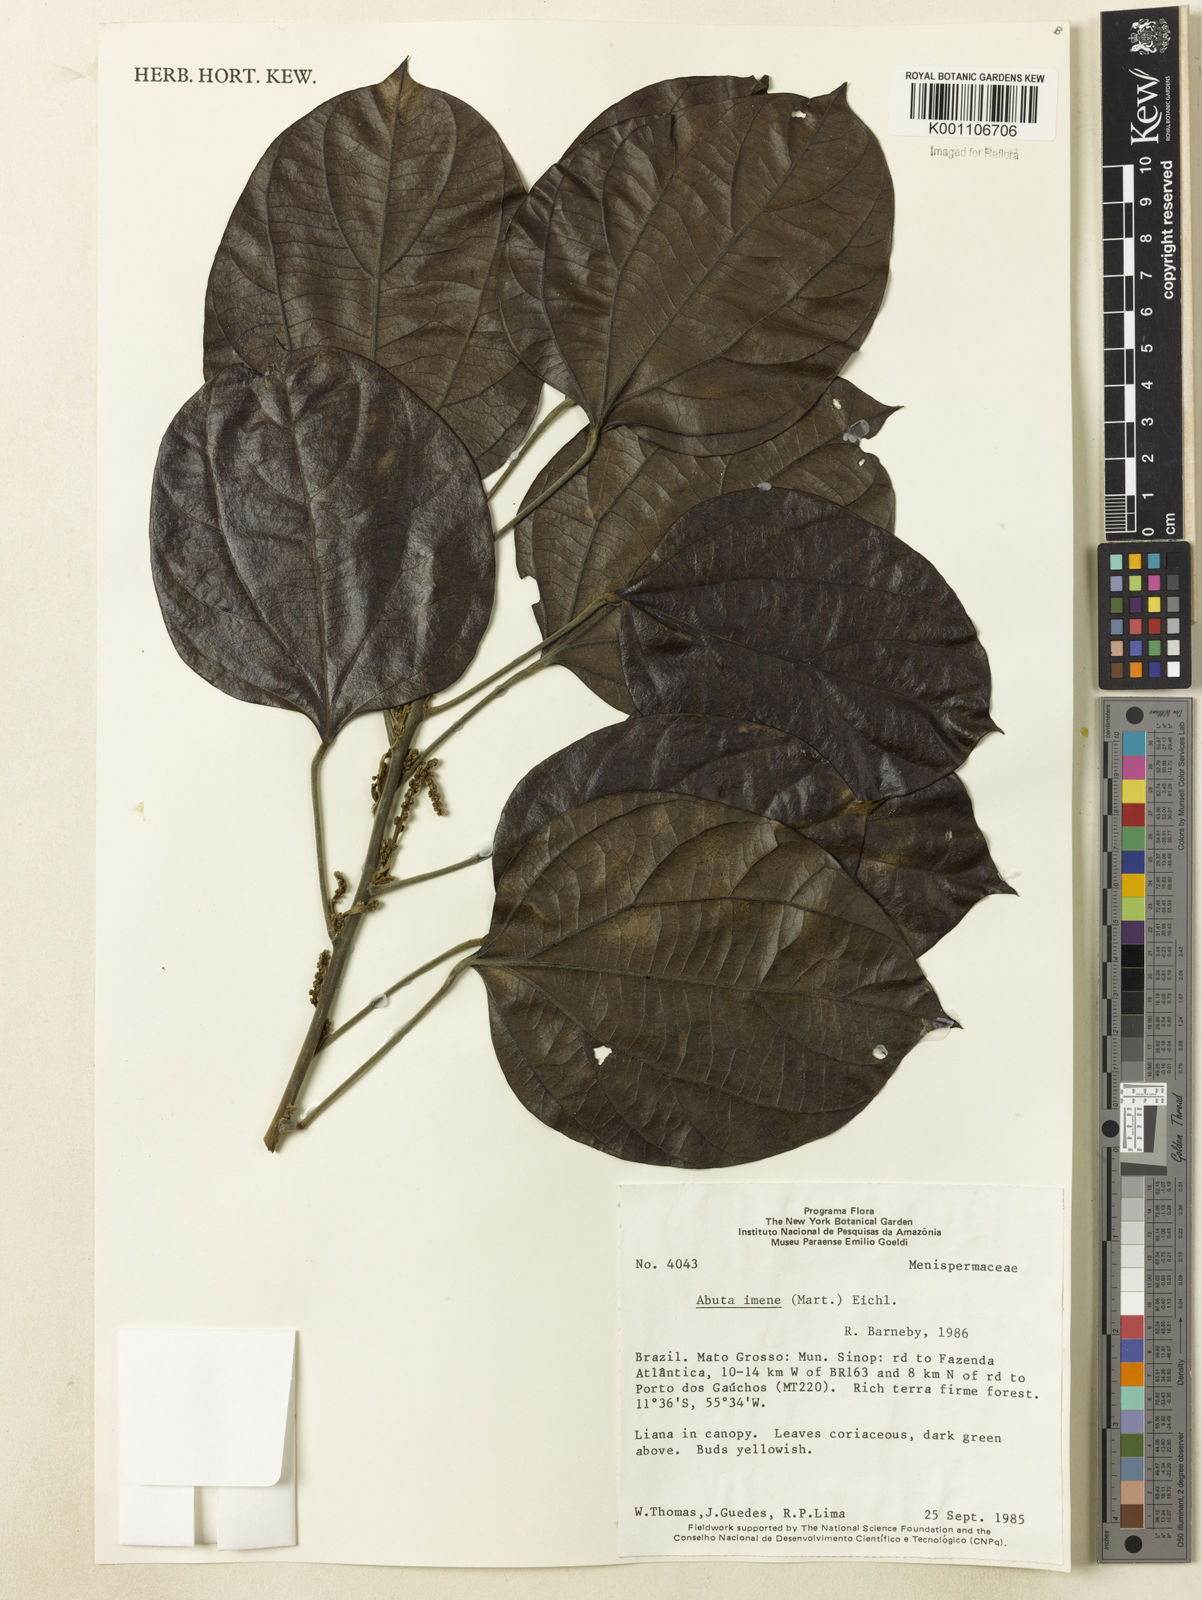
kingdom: Plantae
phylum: Tracheophyta
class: Magnoliopsida
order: Ranunculales
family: Menispermaceae
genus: Abuta
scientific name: Abuta imene
